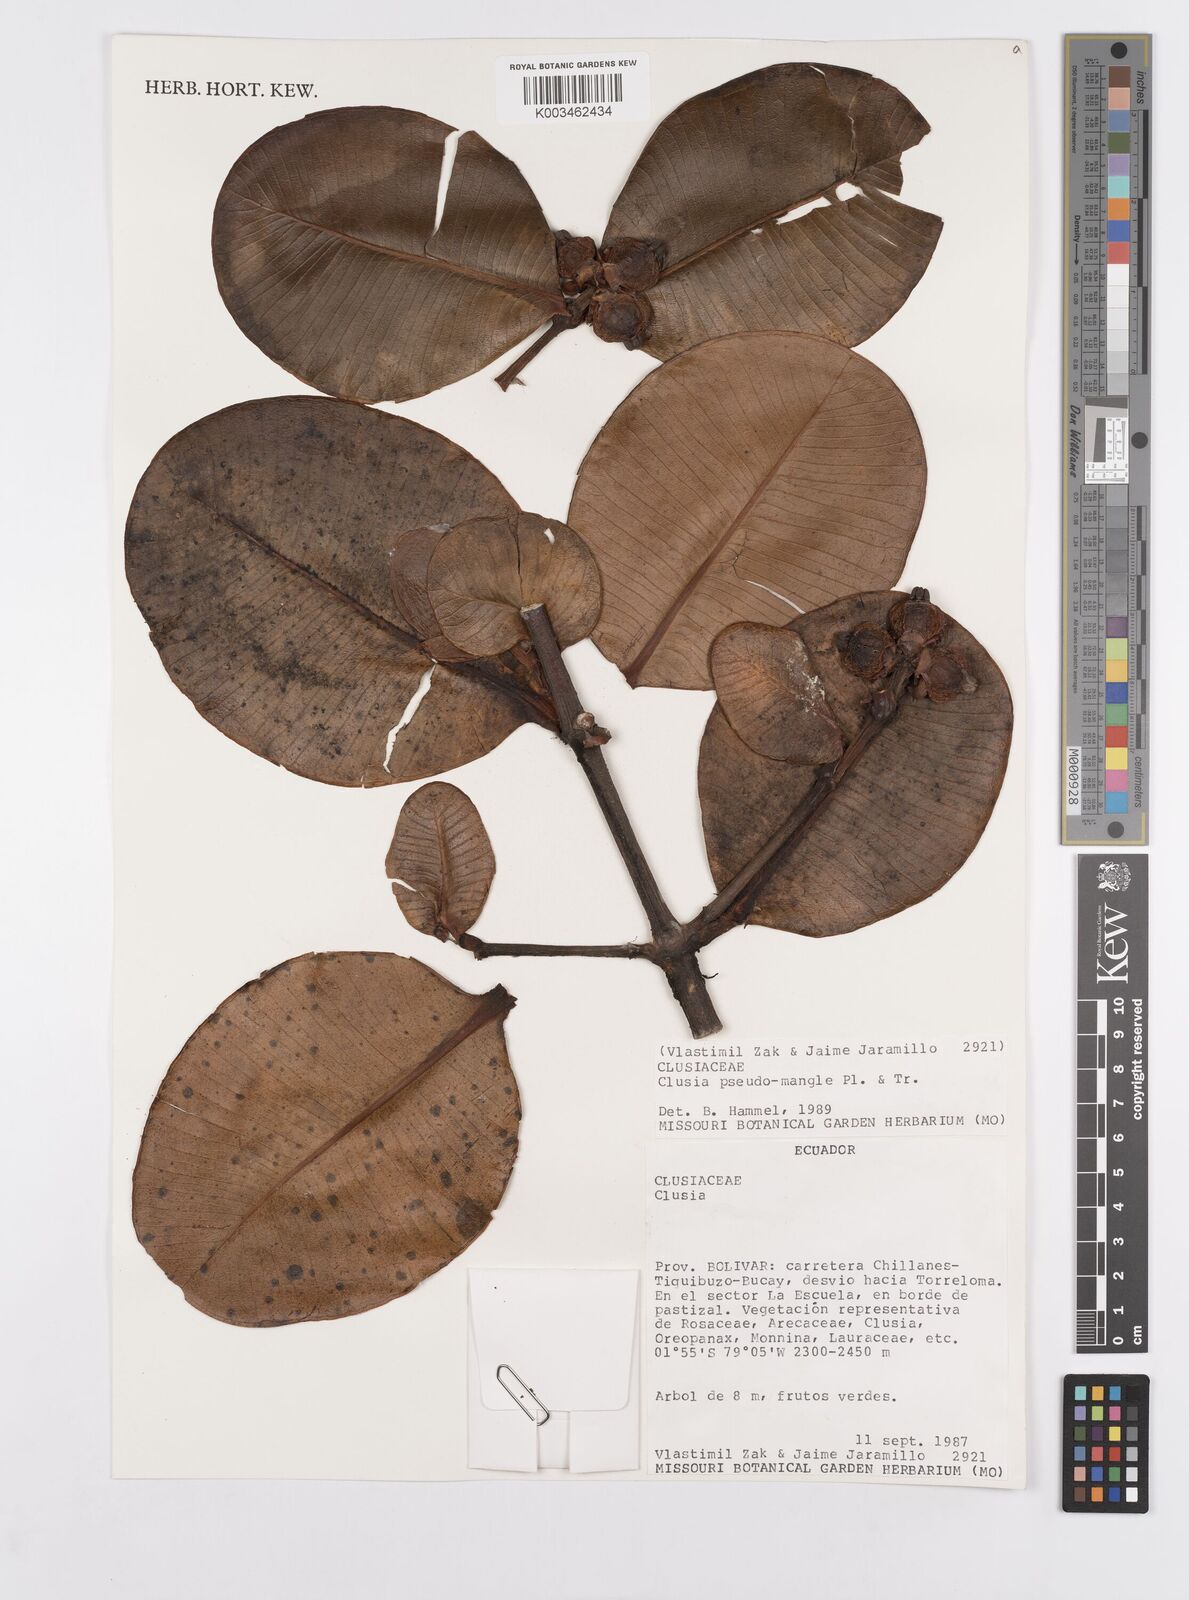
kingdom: Plantae
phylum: Tracheophyta
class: Magnoliopsida
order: Malpighiales
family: Clusiaceae
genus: Clusia
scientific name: Clusia pseudomangle
